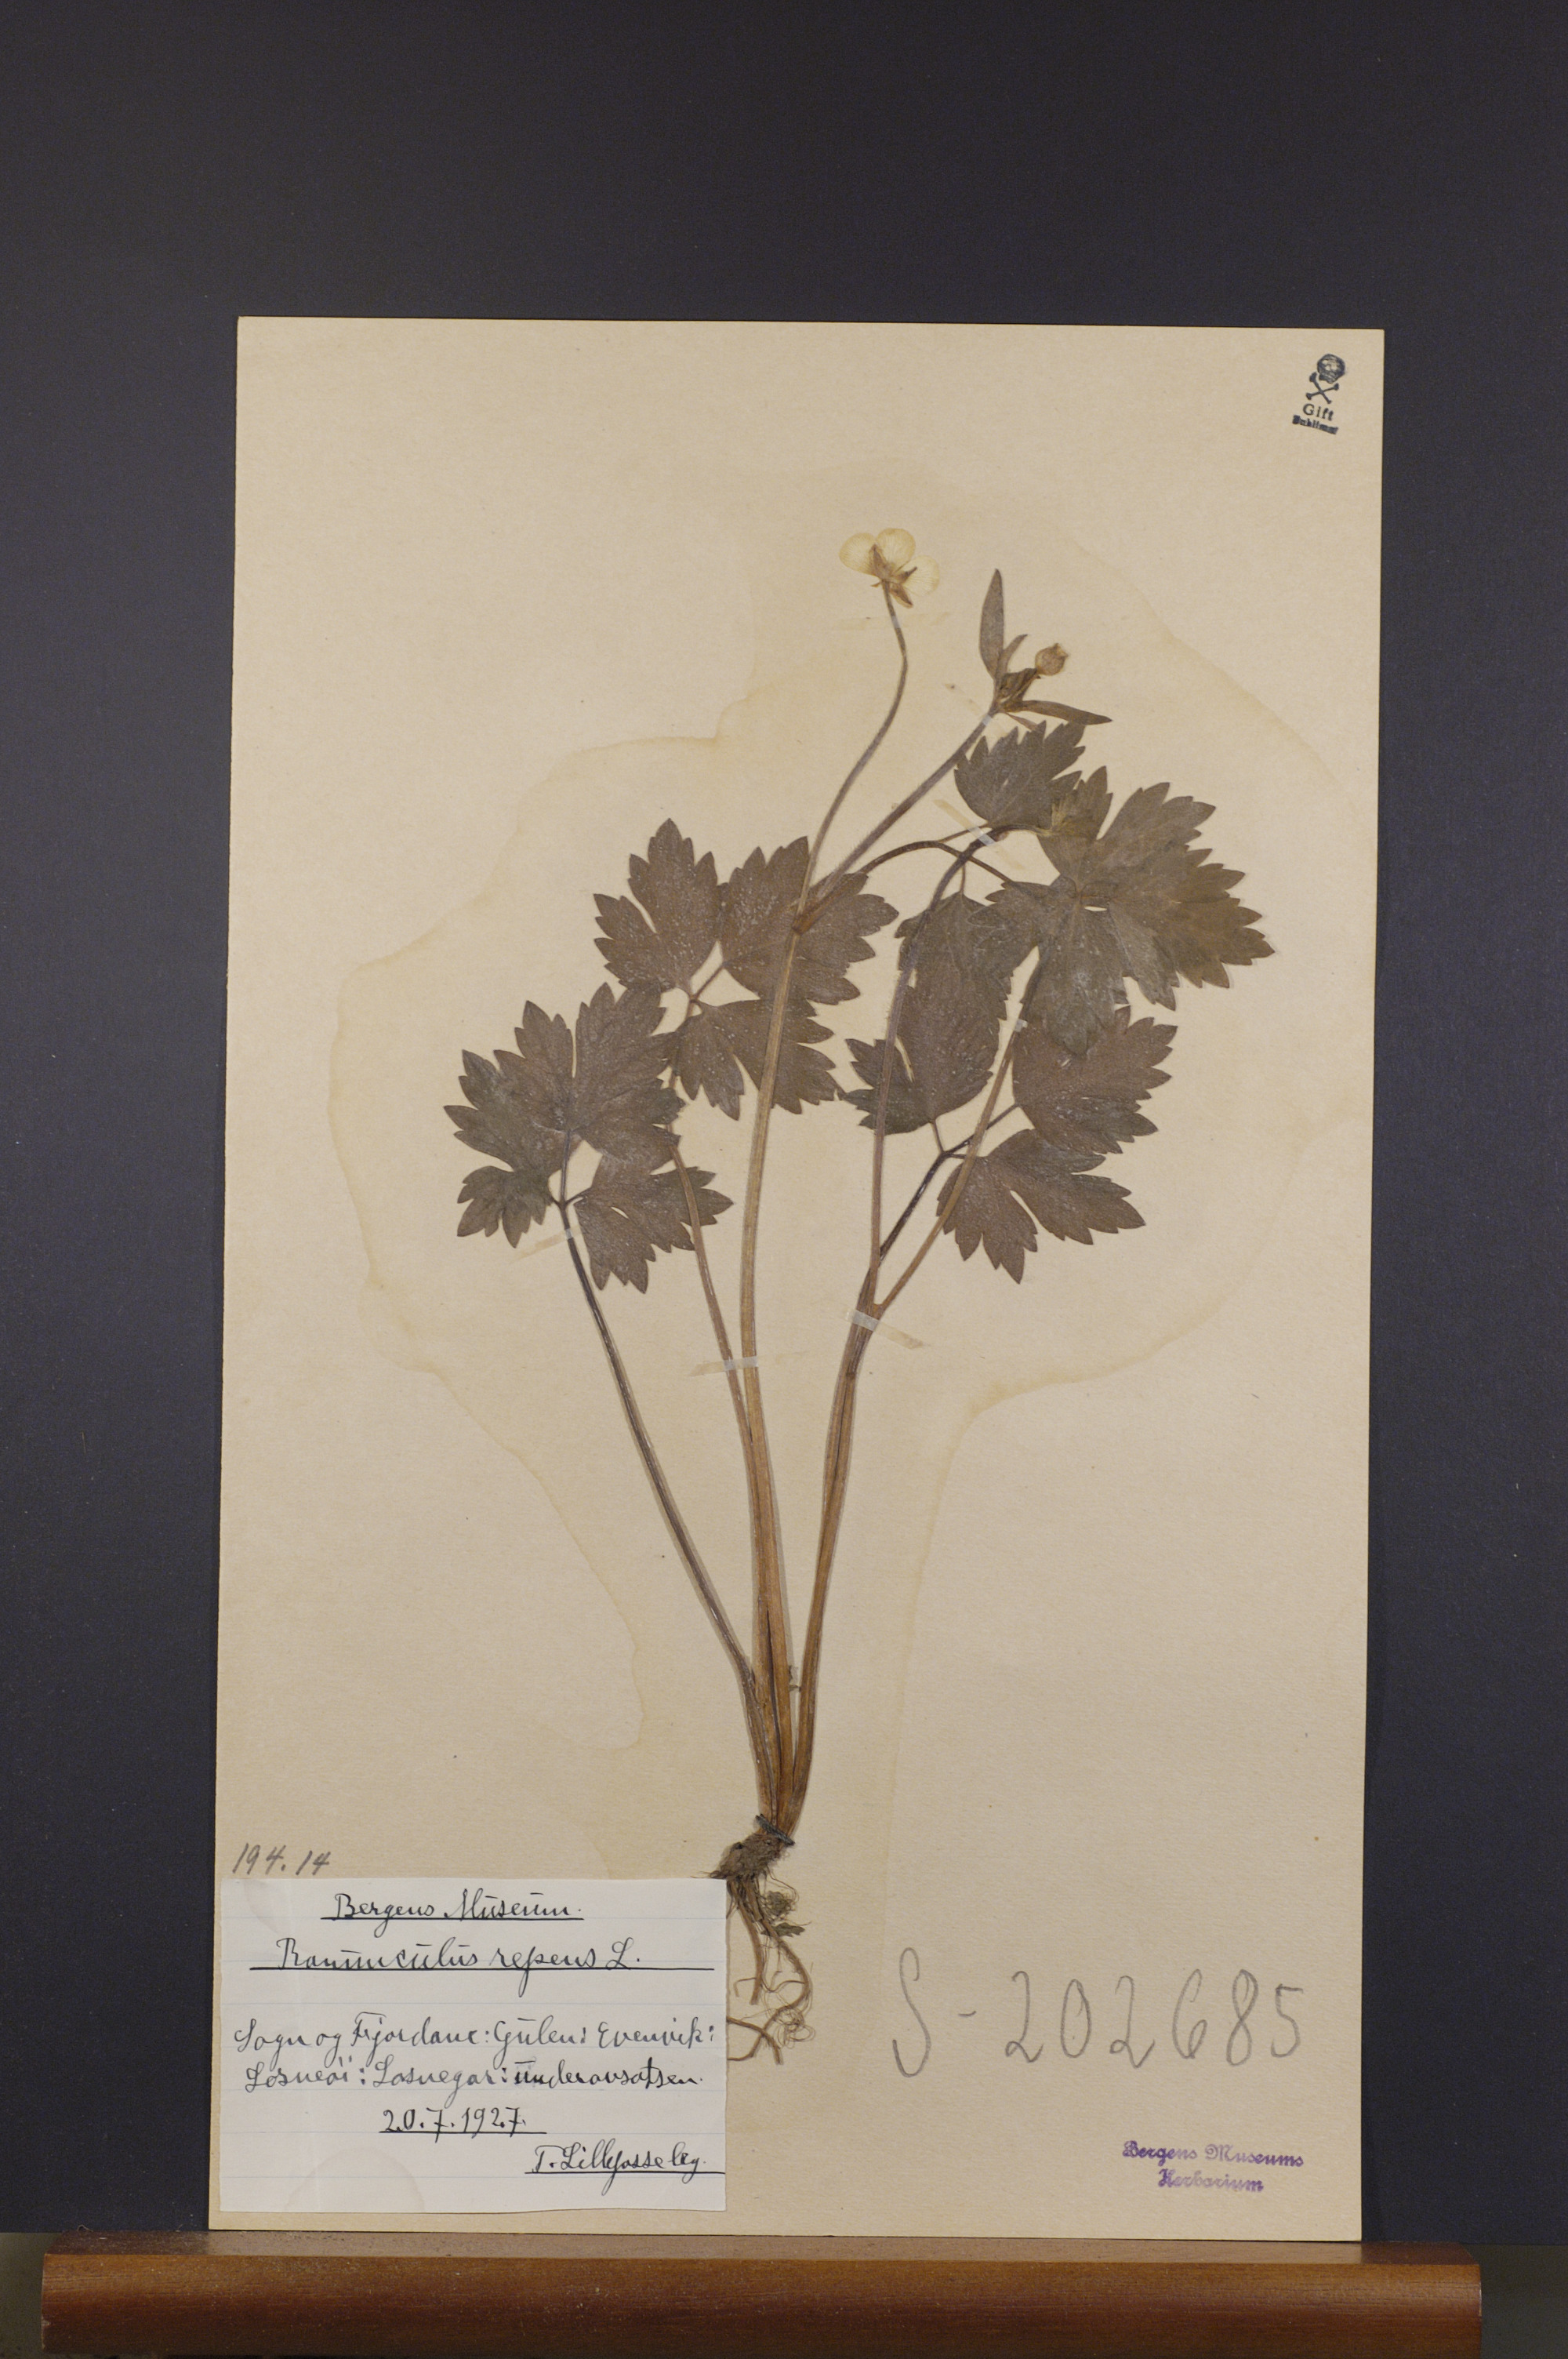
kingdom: Plantae
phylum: Tracheophyta
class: Magnoliopsida
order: Ranunculales
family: Ranunculaceae
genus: Ranunculus
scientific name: Ranunculus repens
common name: Creeping buttercup
